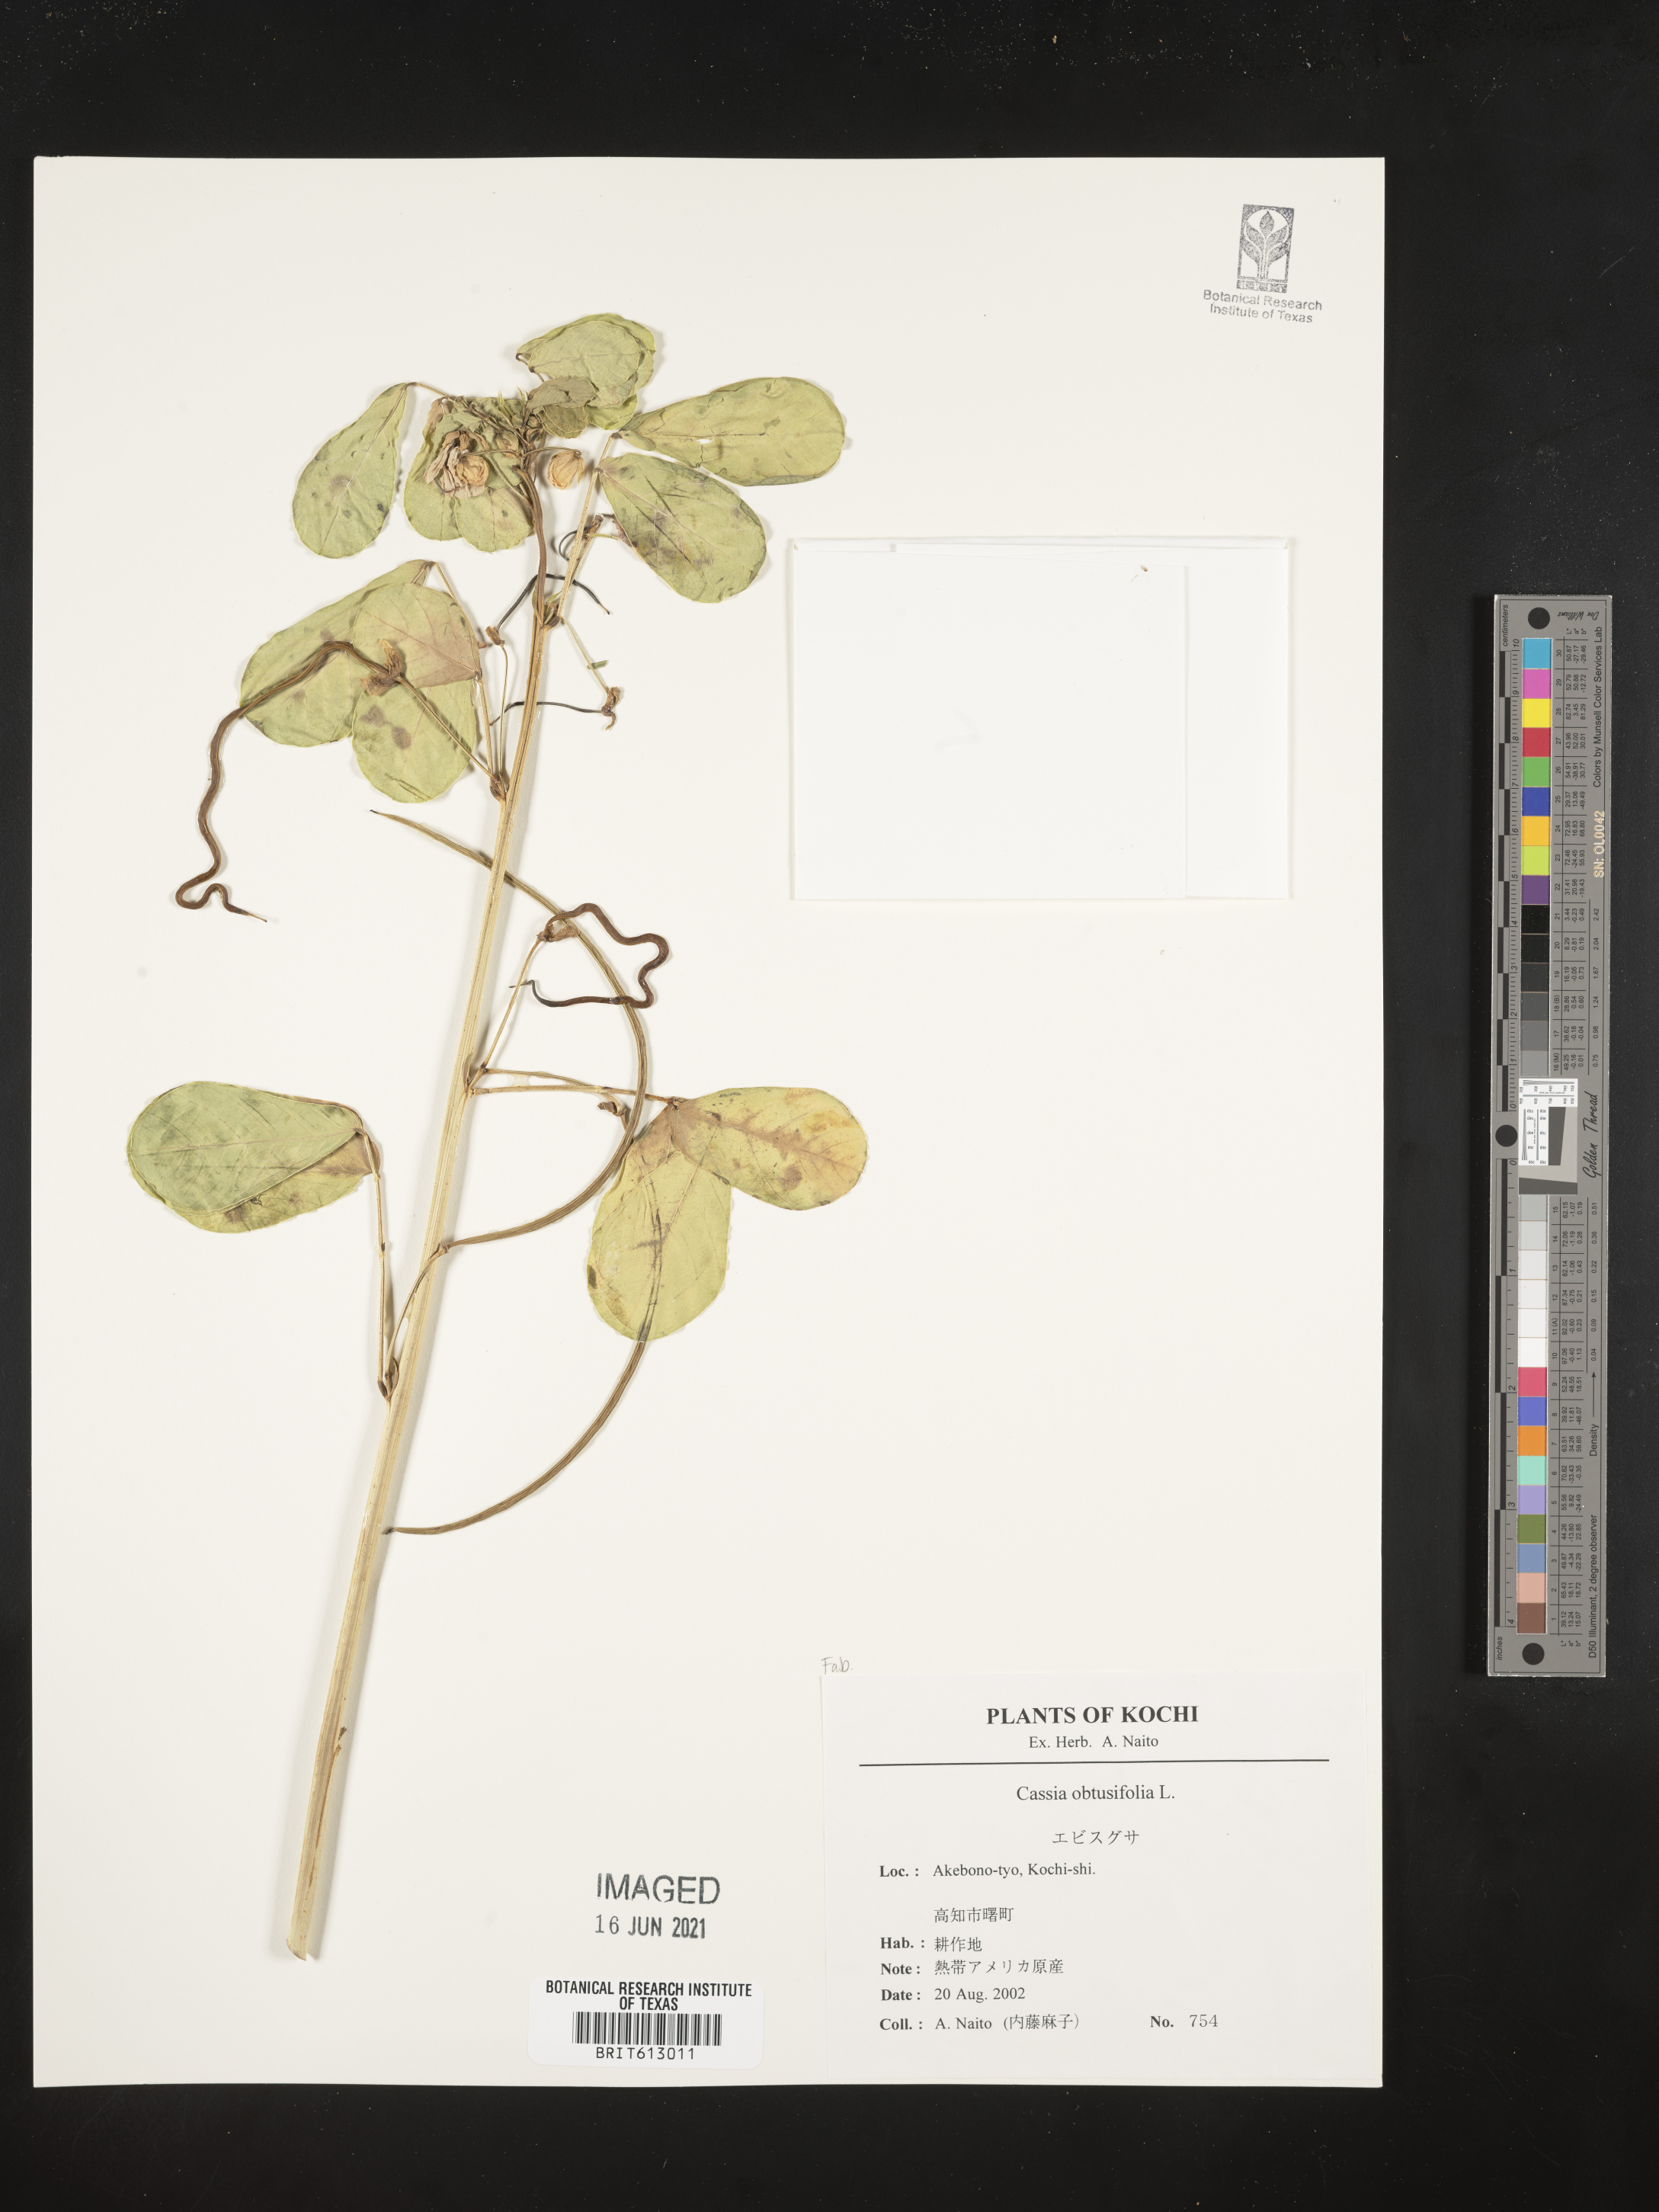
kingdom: Plantae
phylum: Tracheophyta
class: Magnoliopsida
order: Fabales
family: Fabaceae
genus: Senna
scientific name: Senna obtusifolia
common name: Java-bean
